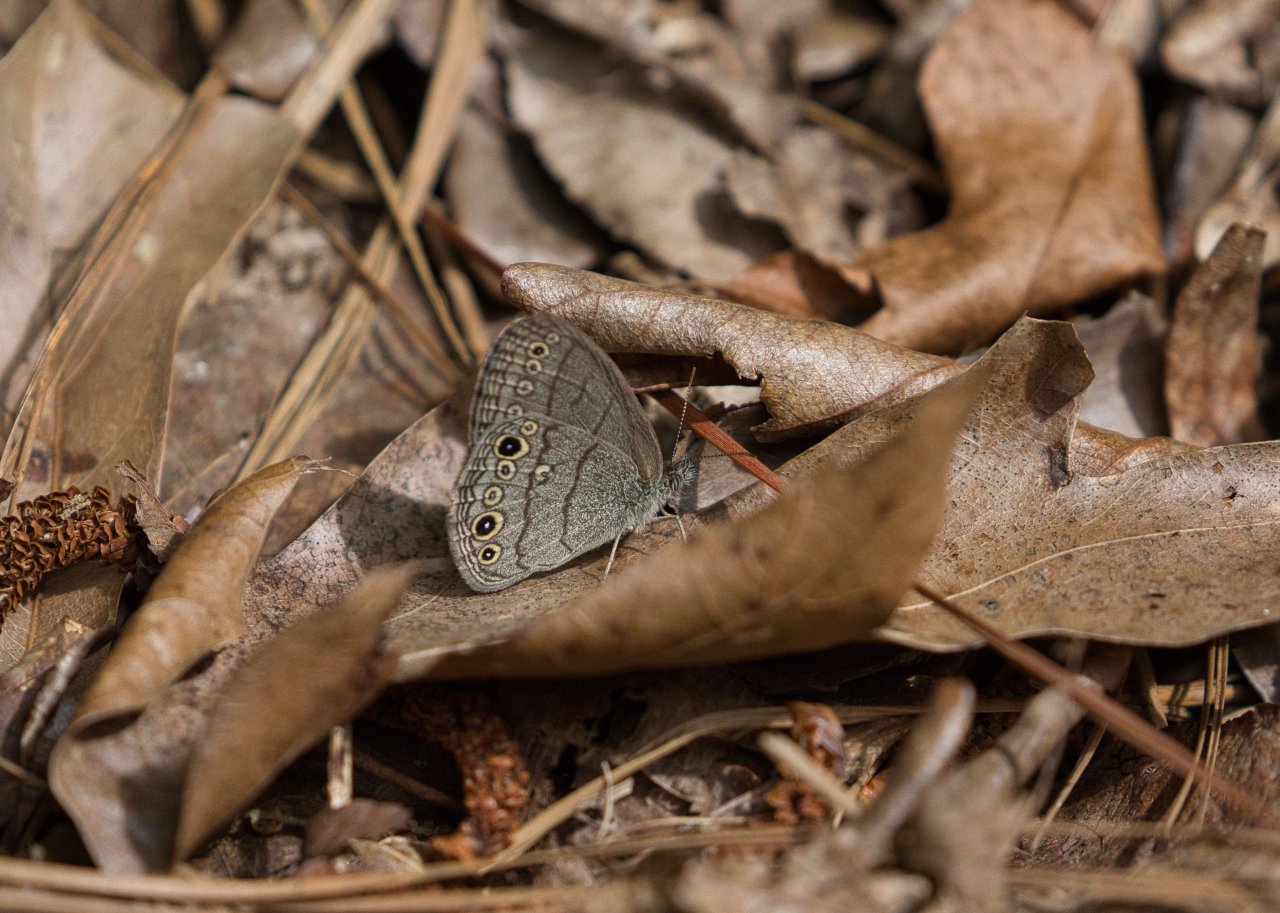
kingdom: Animalia
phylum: Arthropoda
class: Insecta
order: Lepidoptera
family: Nymphalidae
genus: Hermeuptychia
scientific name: Hermeuptychia hermes
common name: Carolina Satyr
